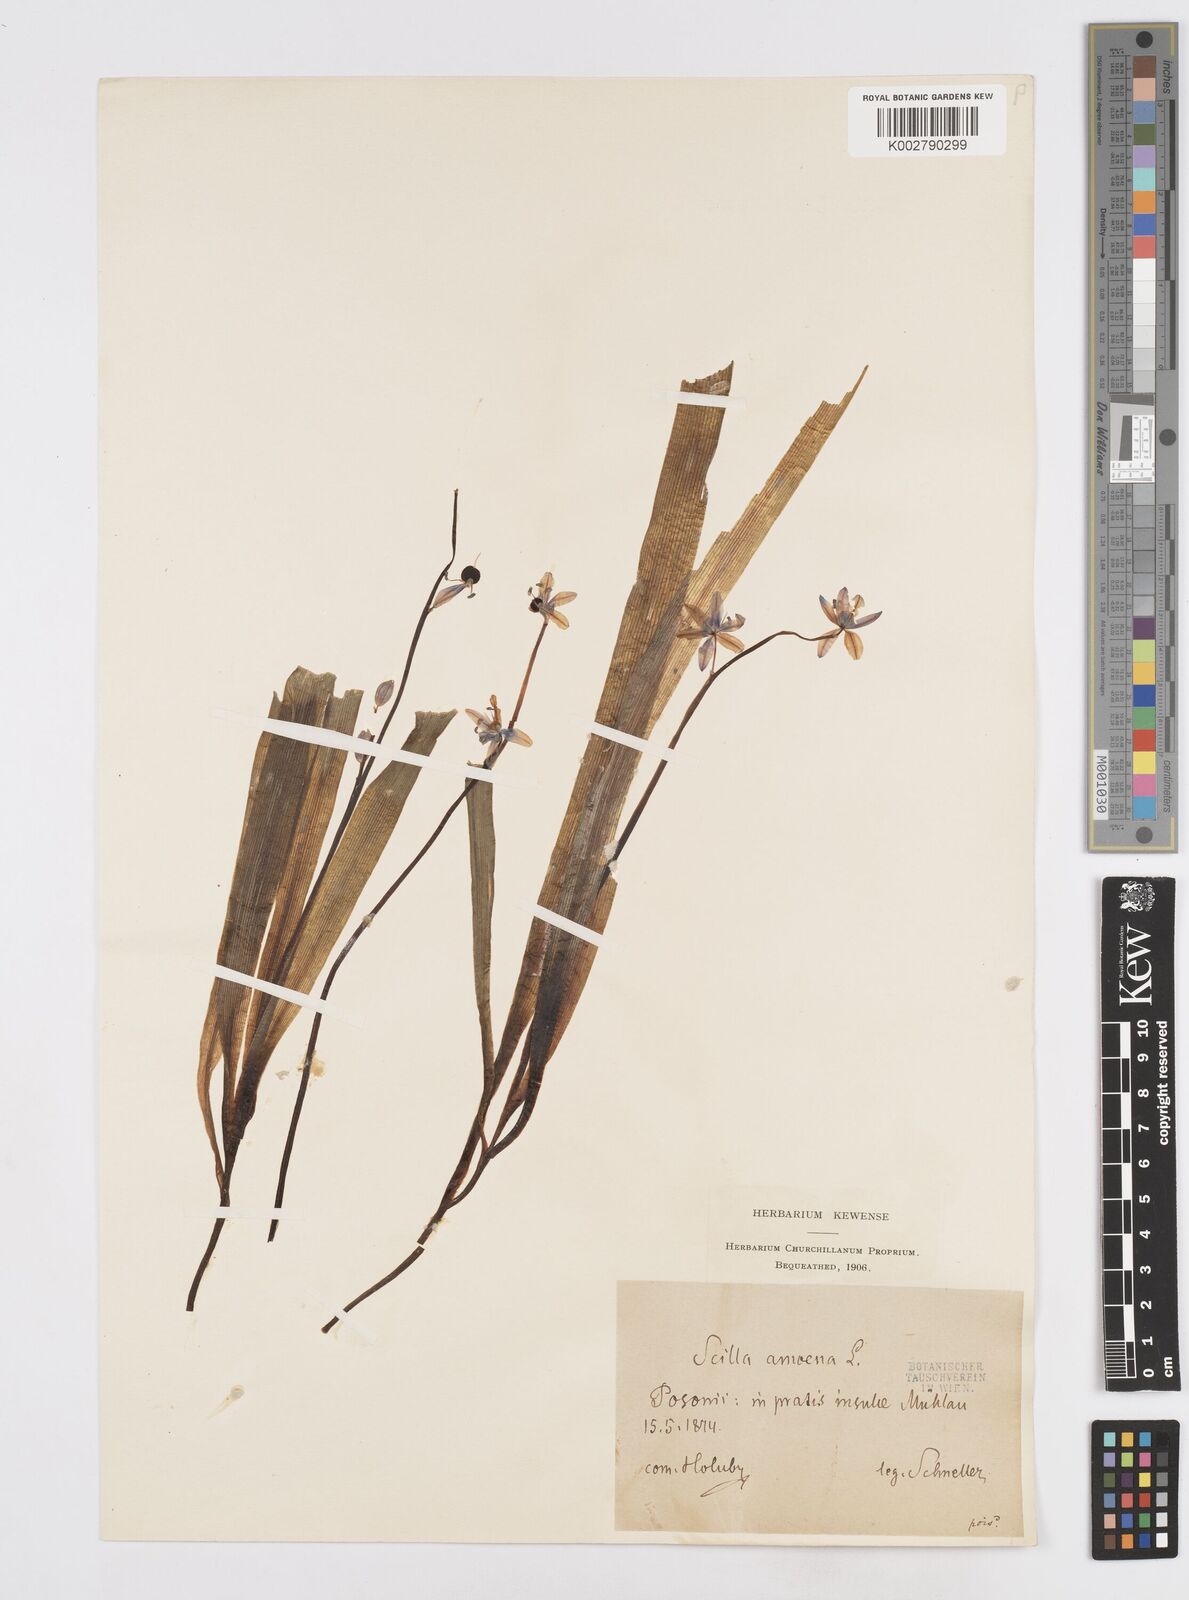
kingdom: Plantae
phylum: Tracheophyta
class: Liliopsida
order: Asparagales
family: Asparagaceae
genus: Scilla
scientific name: Scilla amoena
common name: Star-hyacinth
